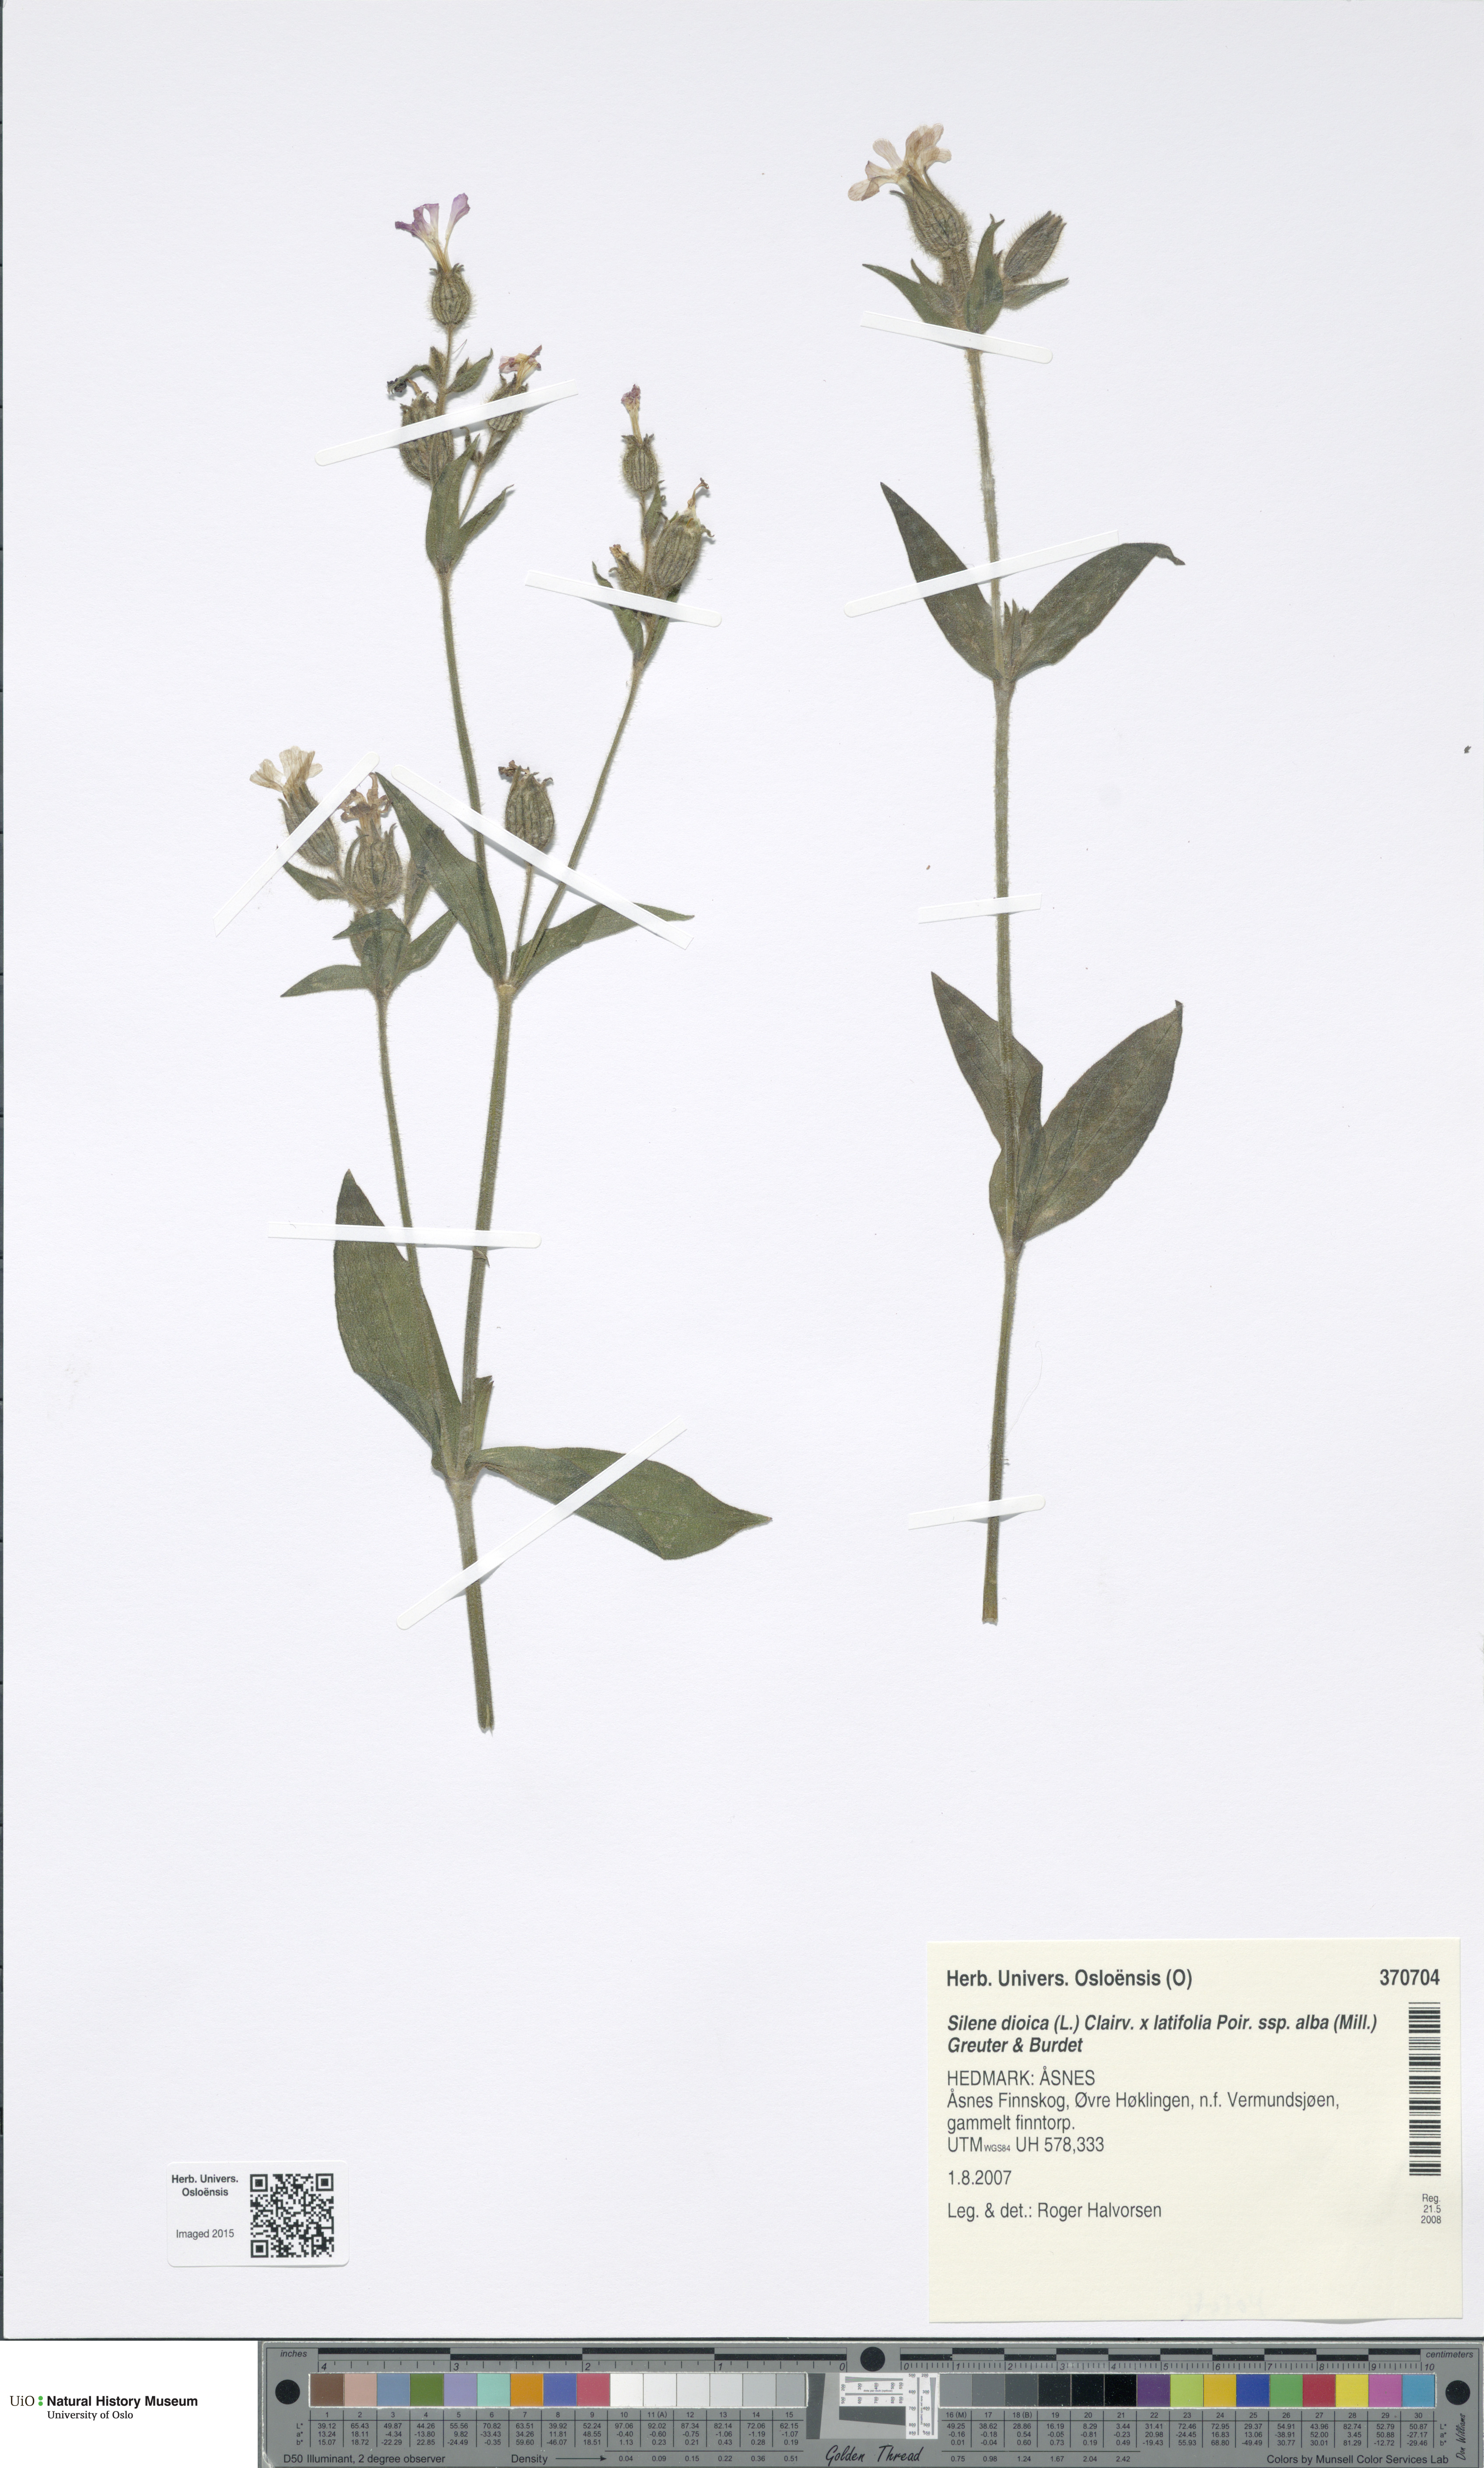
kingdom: Plantae
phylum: Tracheophyta
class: Magnoliopsida
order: Caryophyllales
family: Caryophyllaceae
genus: Silene
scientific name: Silene
